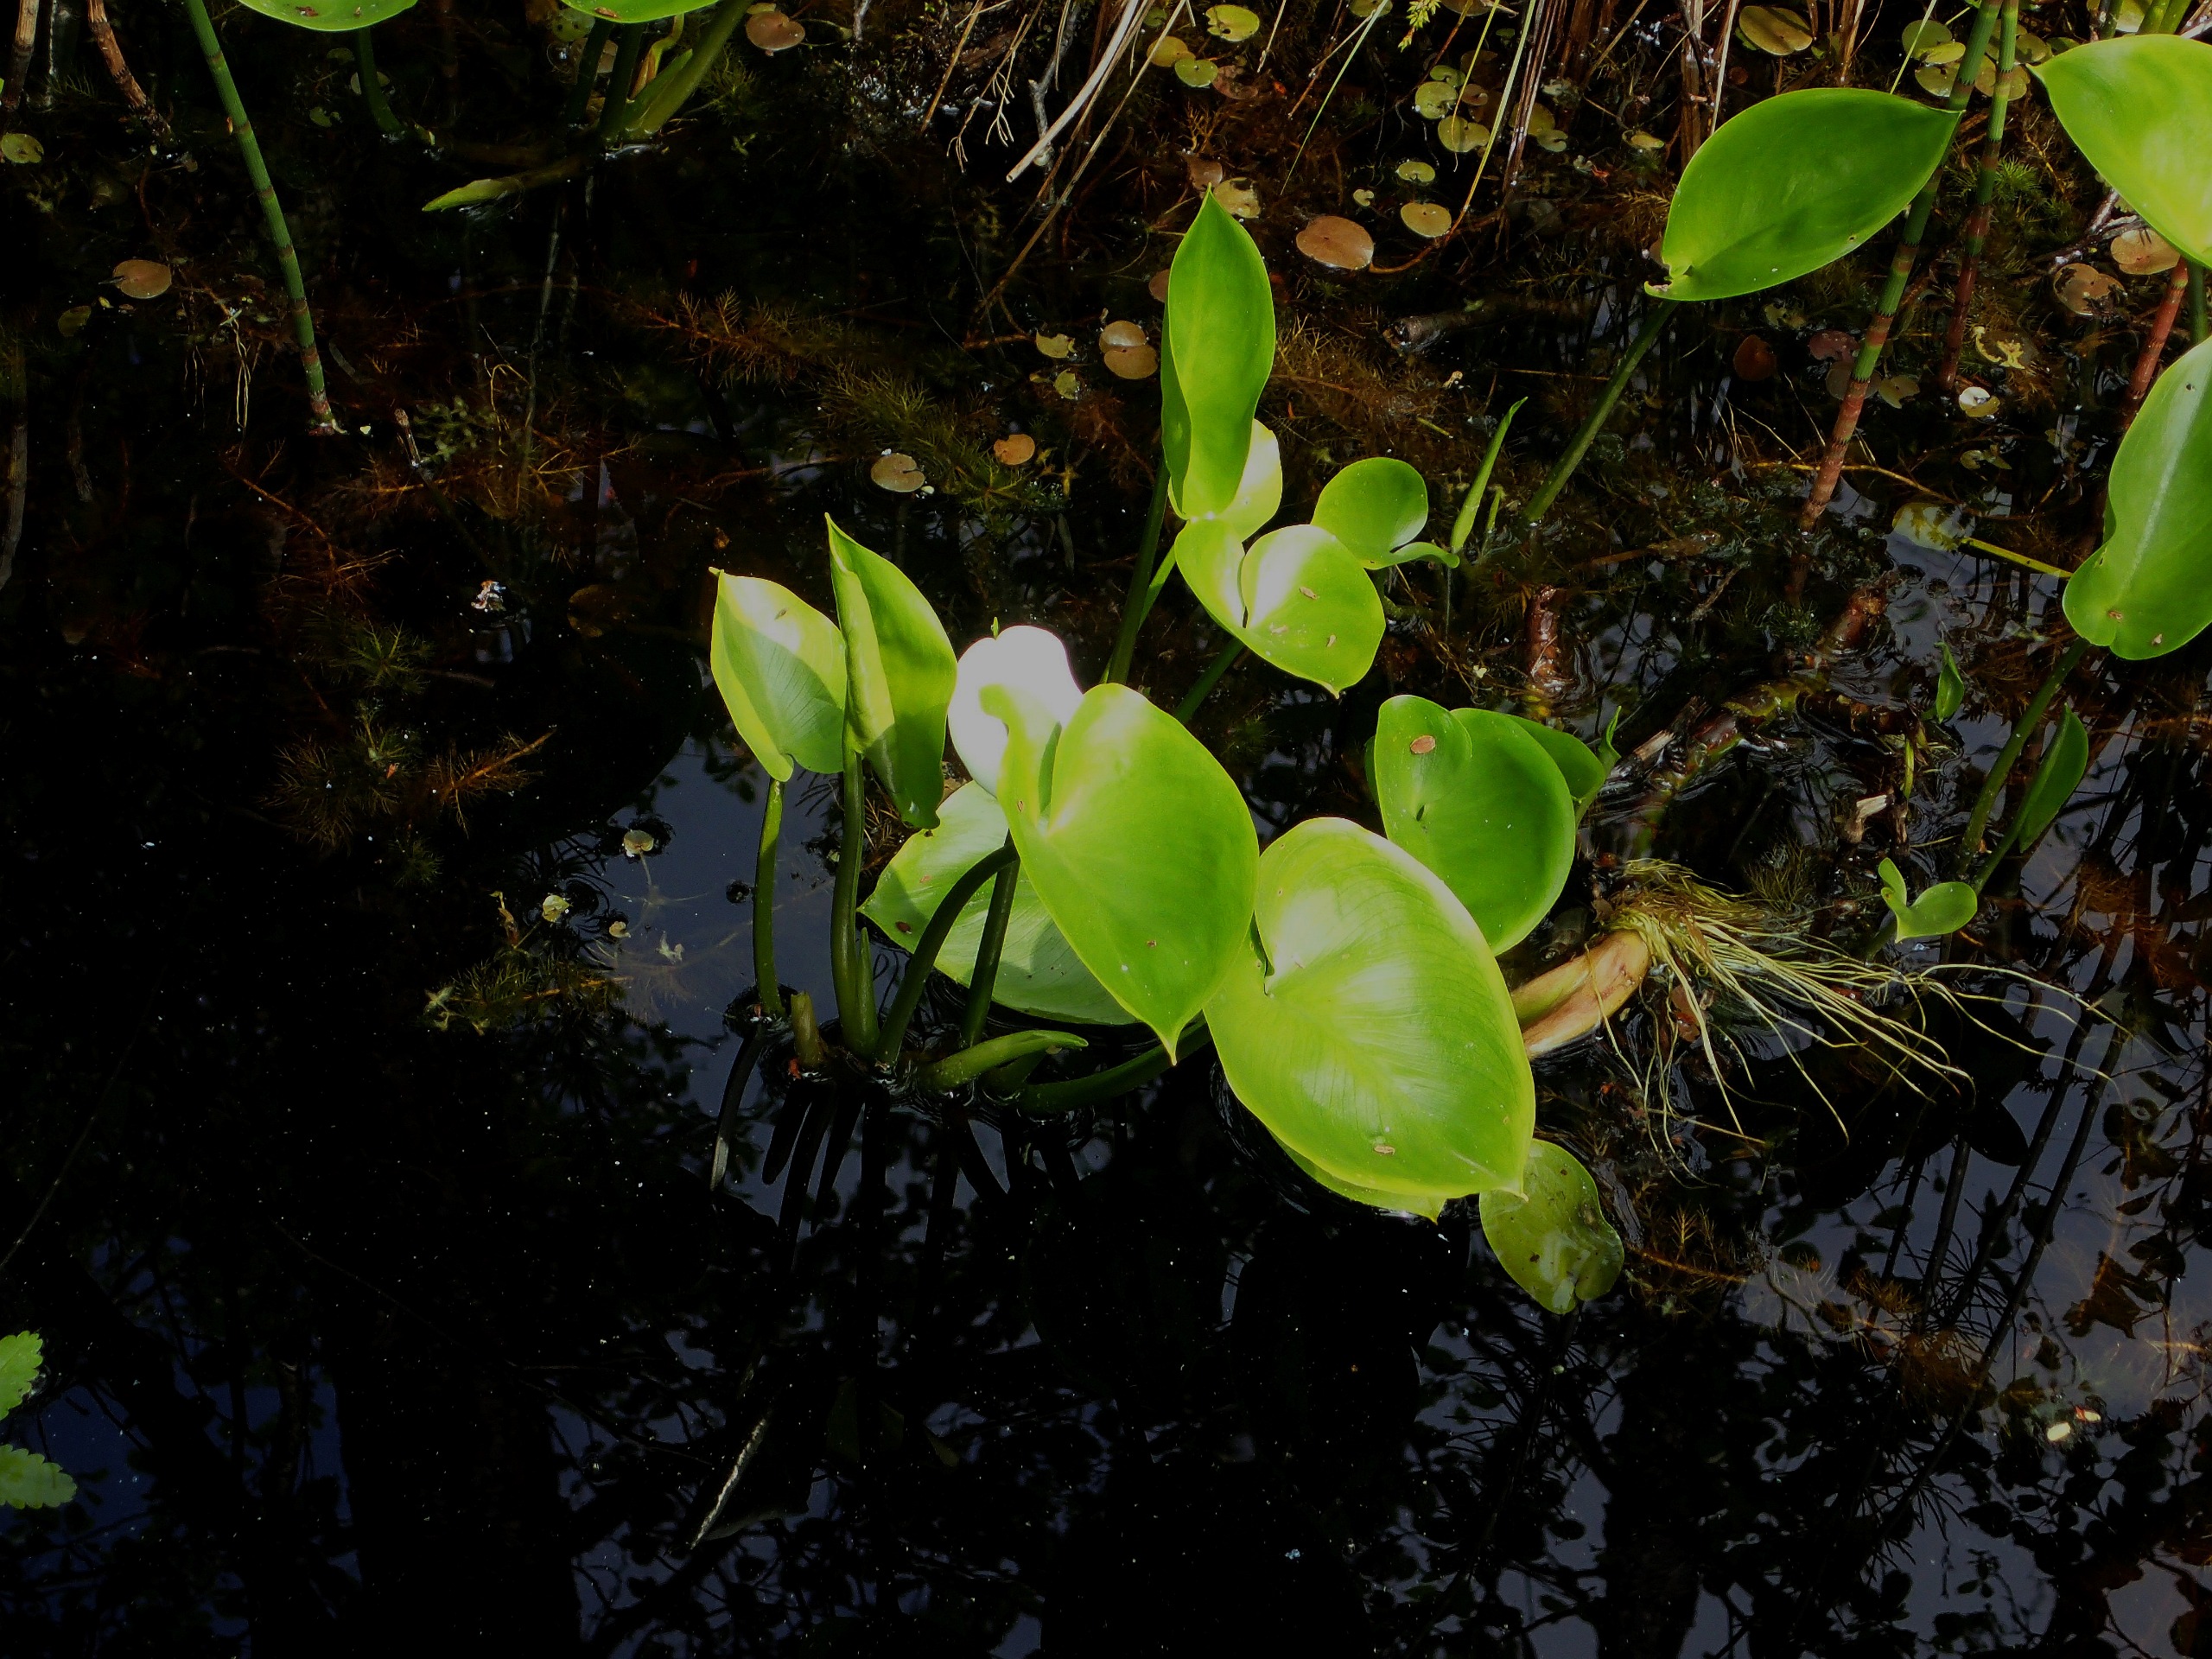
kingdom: Plantae
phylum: Tracheophyta
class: Liliopsida
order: Alismatales
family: Araceae
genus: Calla
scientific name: Calla palustris
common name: Kærmysse
